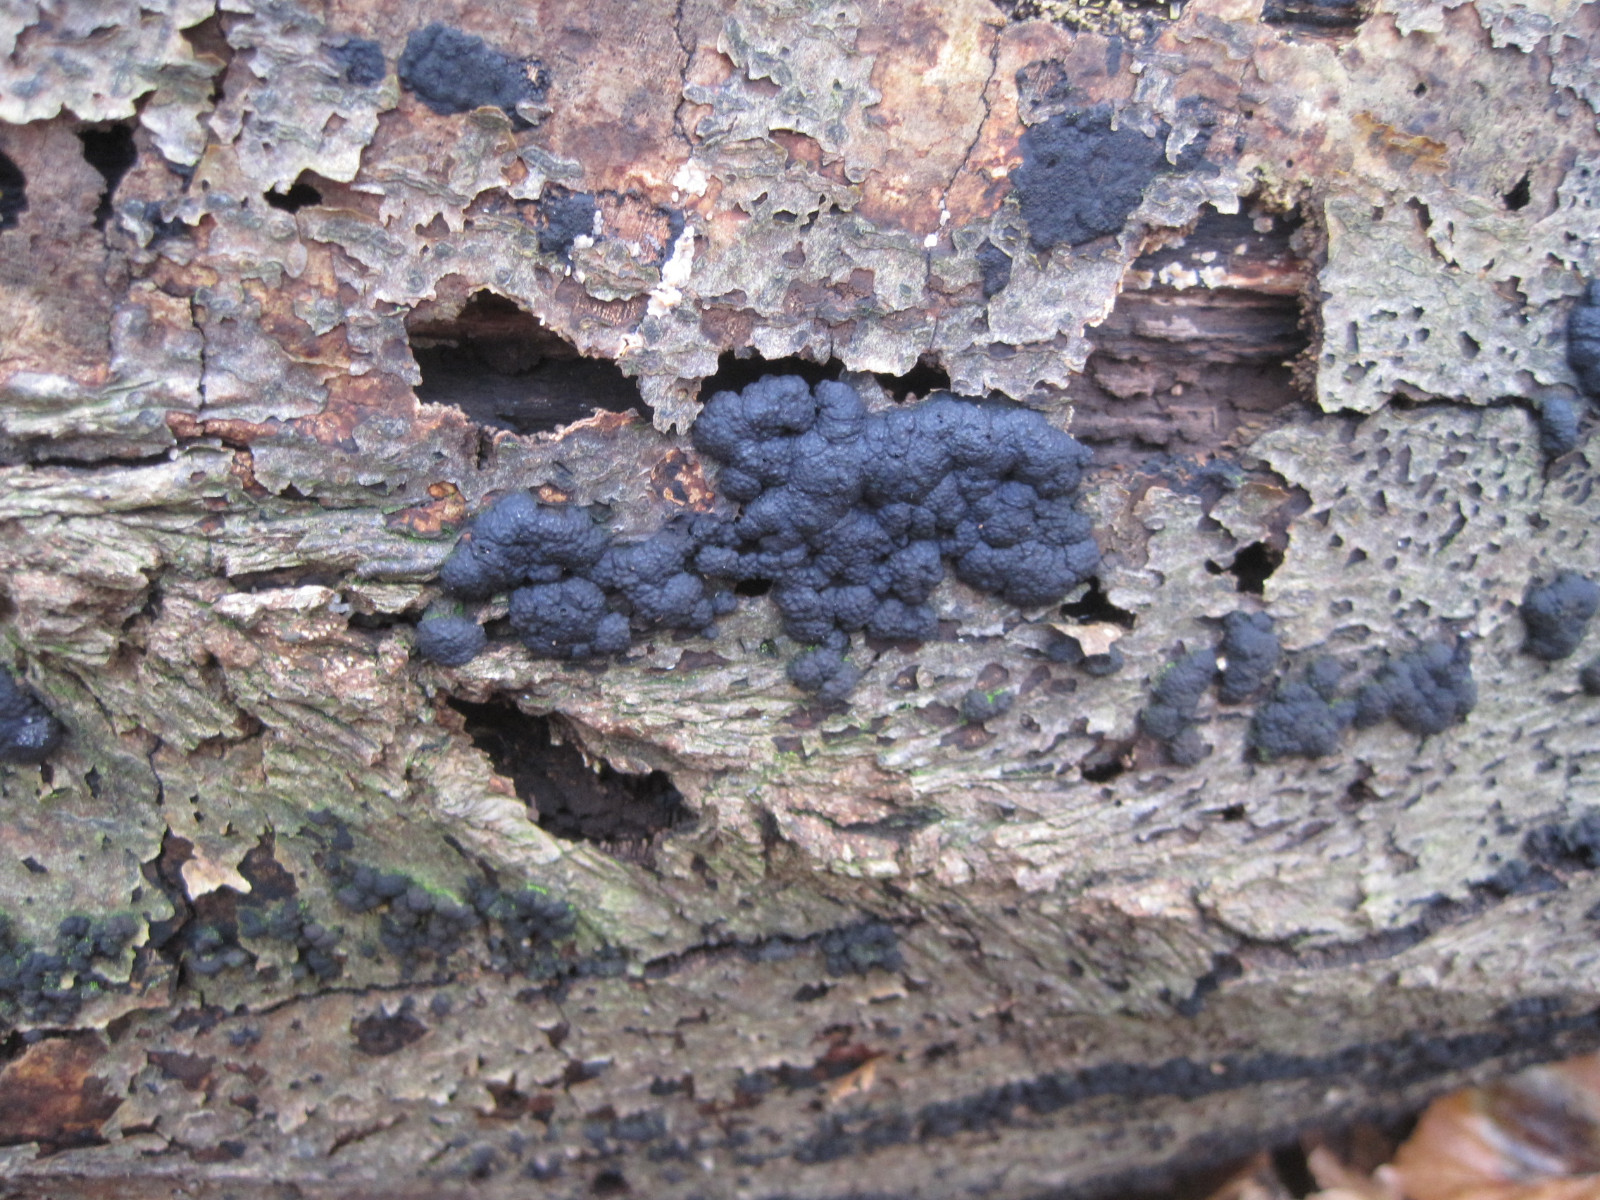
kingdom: Fungi
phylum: Ascomycota
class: Sordariomycetes
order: Xylariales
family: Hypoxylaceae
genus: Jackrogersella
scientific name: Jackrogersella cohaerens
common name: sammenflydende kulbær
